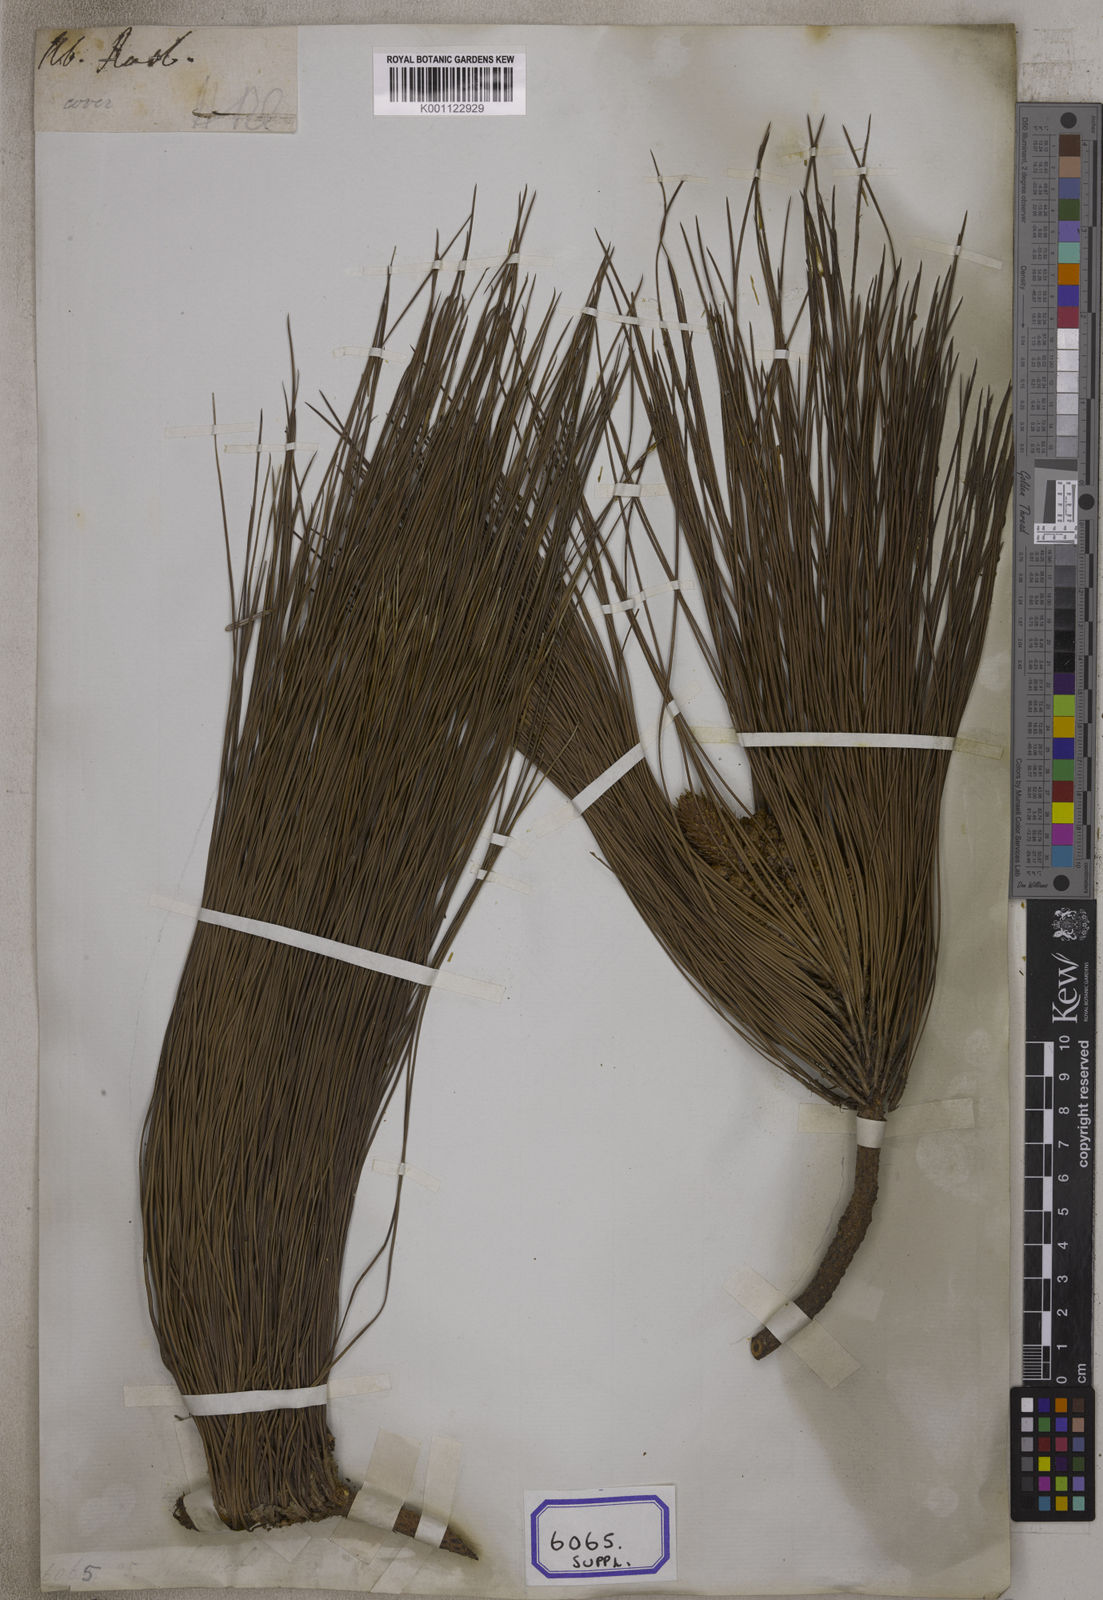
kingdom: Plantae
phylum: Tracheophyta
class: Pinopsida
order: Pinales
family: Pinaceae
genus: Pinus
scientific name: Pinus
